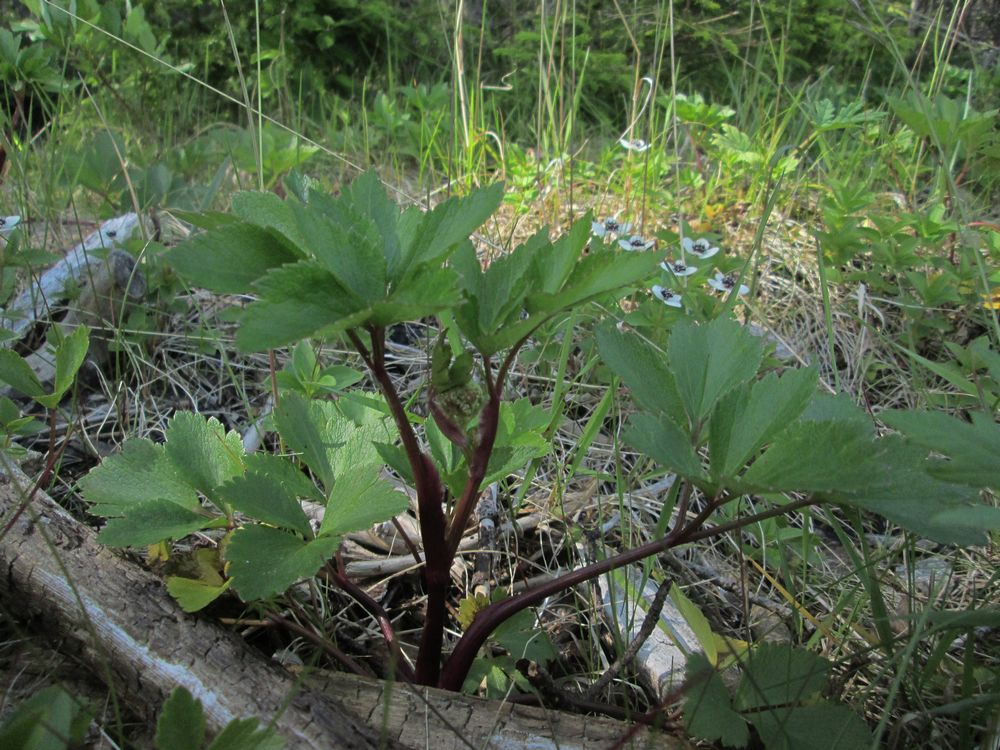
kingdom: Plantae
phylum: Tracheophyta
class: Magnoliopsida
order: Apiales
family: Apiaceae
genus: Ligusticum
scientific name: Ligusticum scothicum
